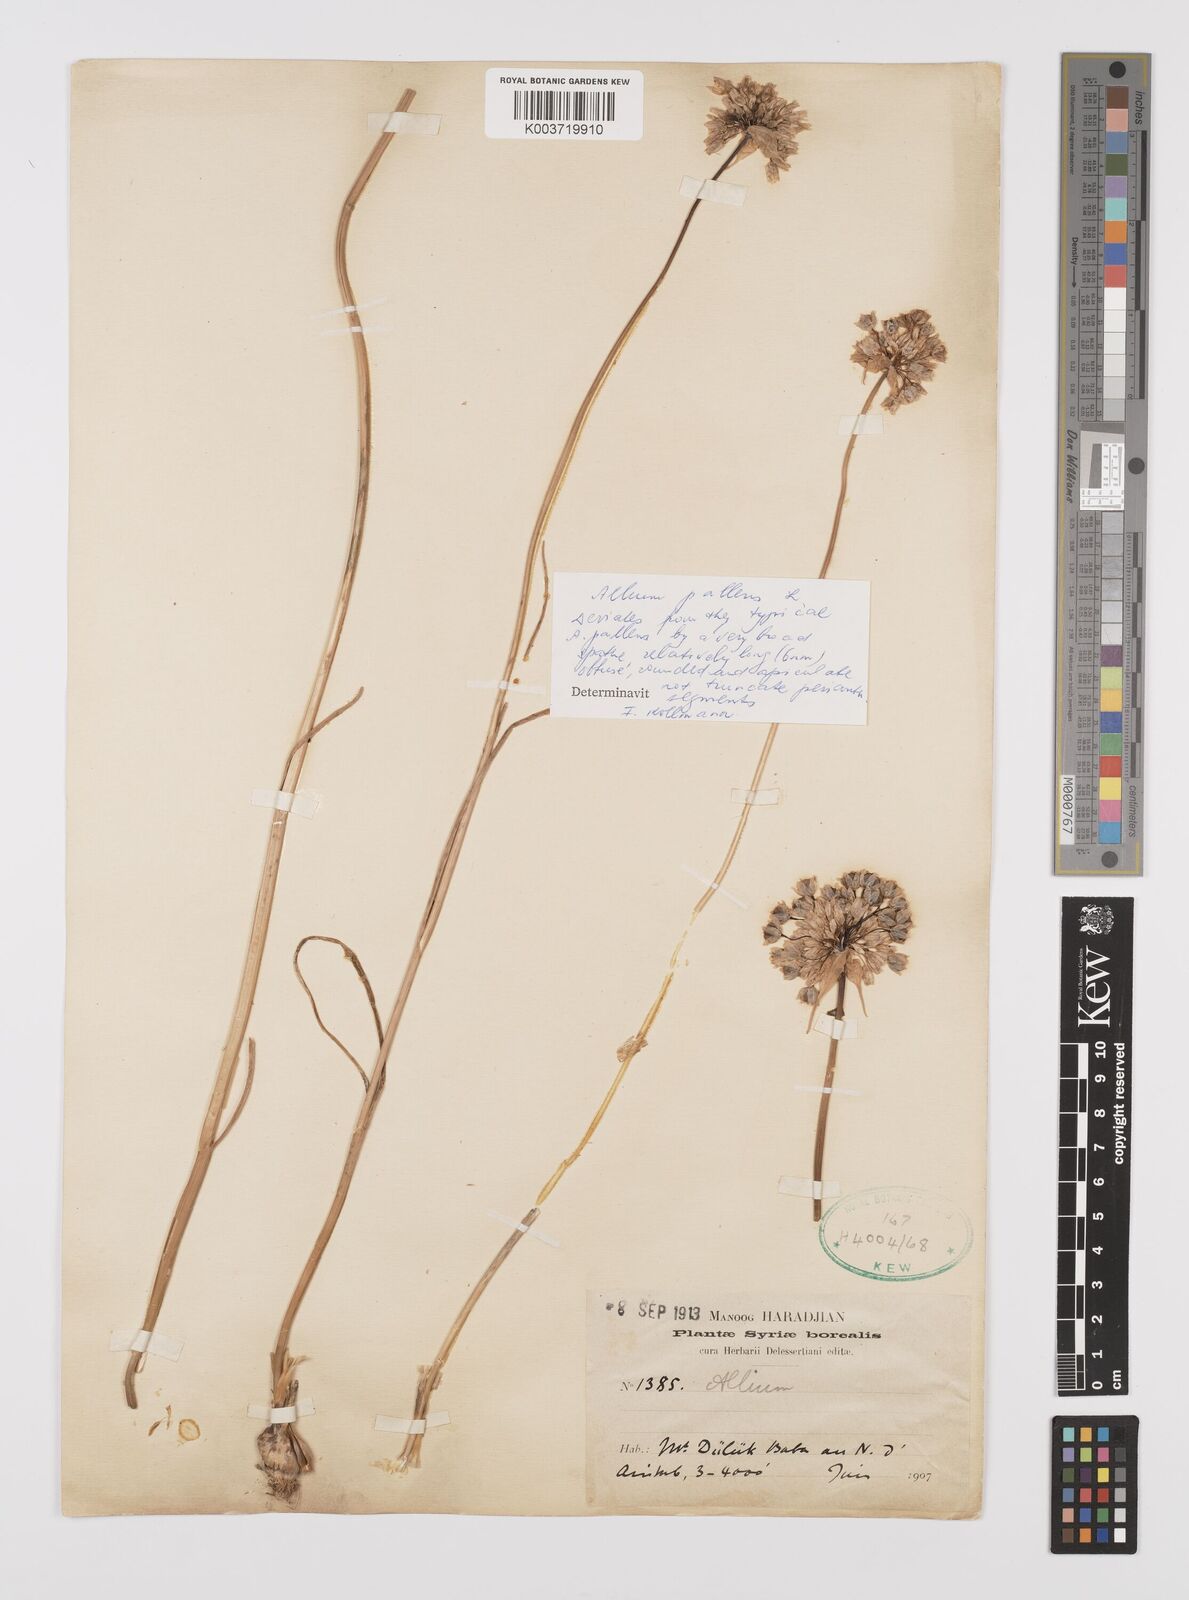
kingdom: Plantae
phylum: Tracheophyta
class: Liliopsida
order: Asparagales
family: Amaryllidaceae
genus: Allium
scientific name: Allium pallens
